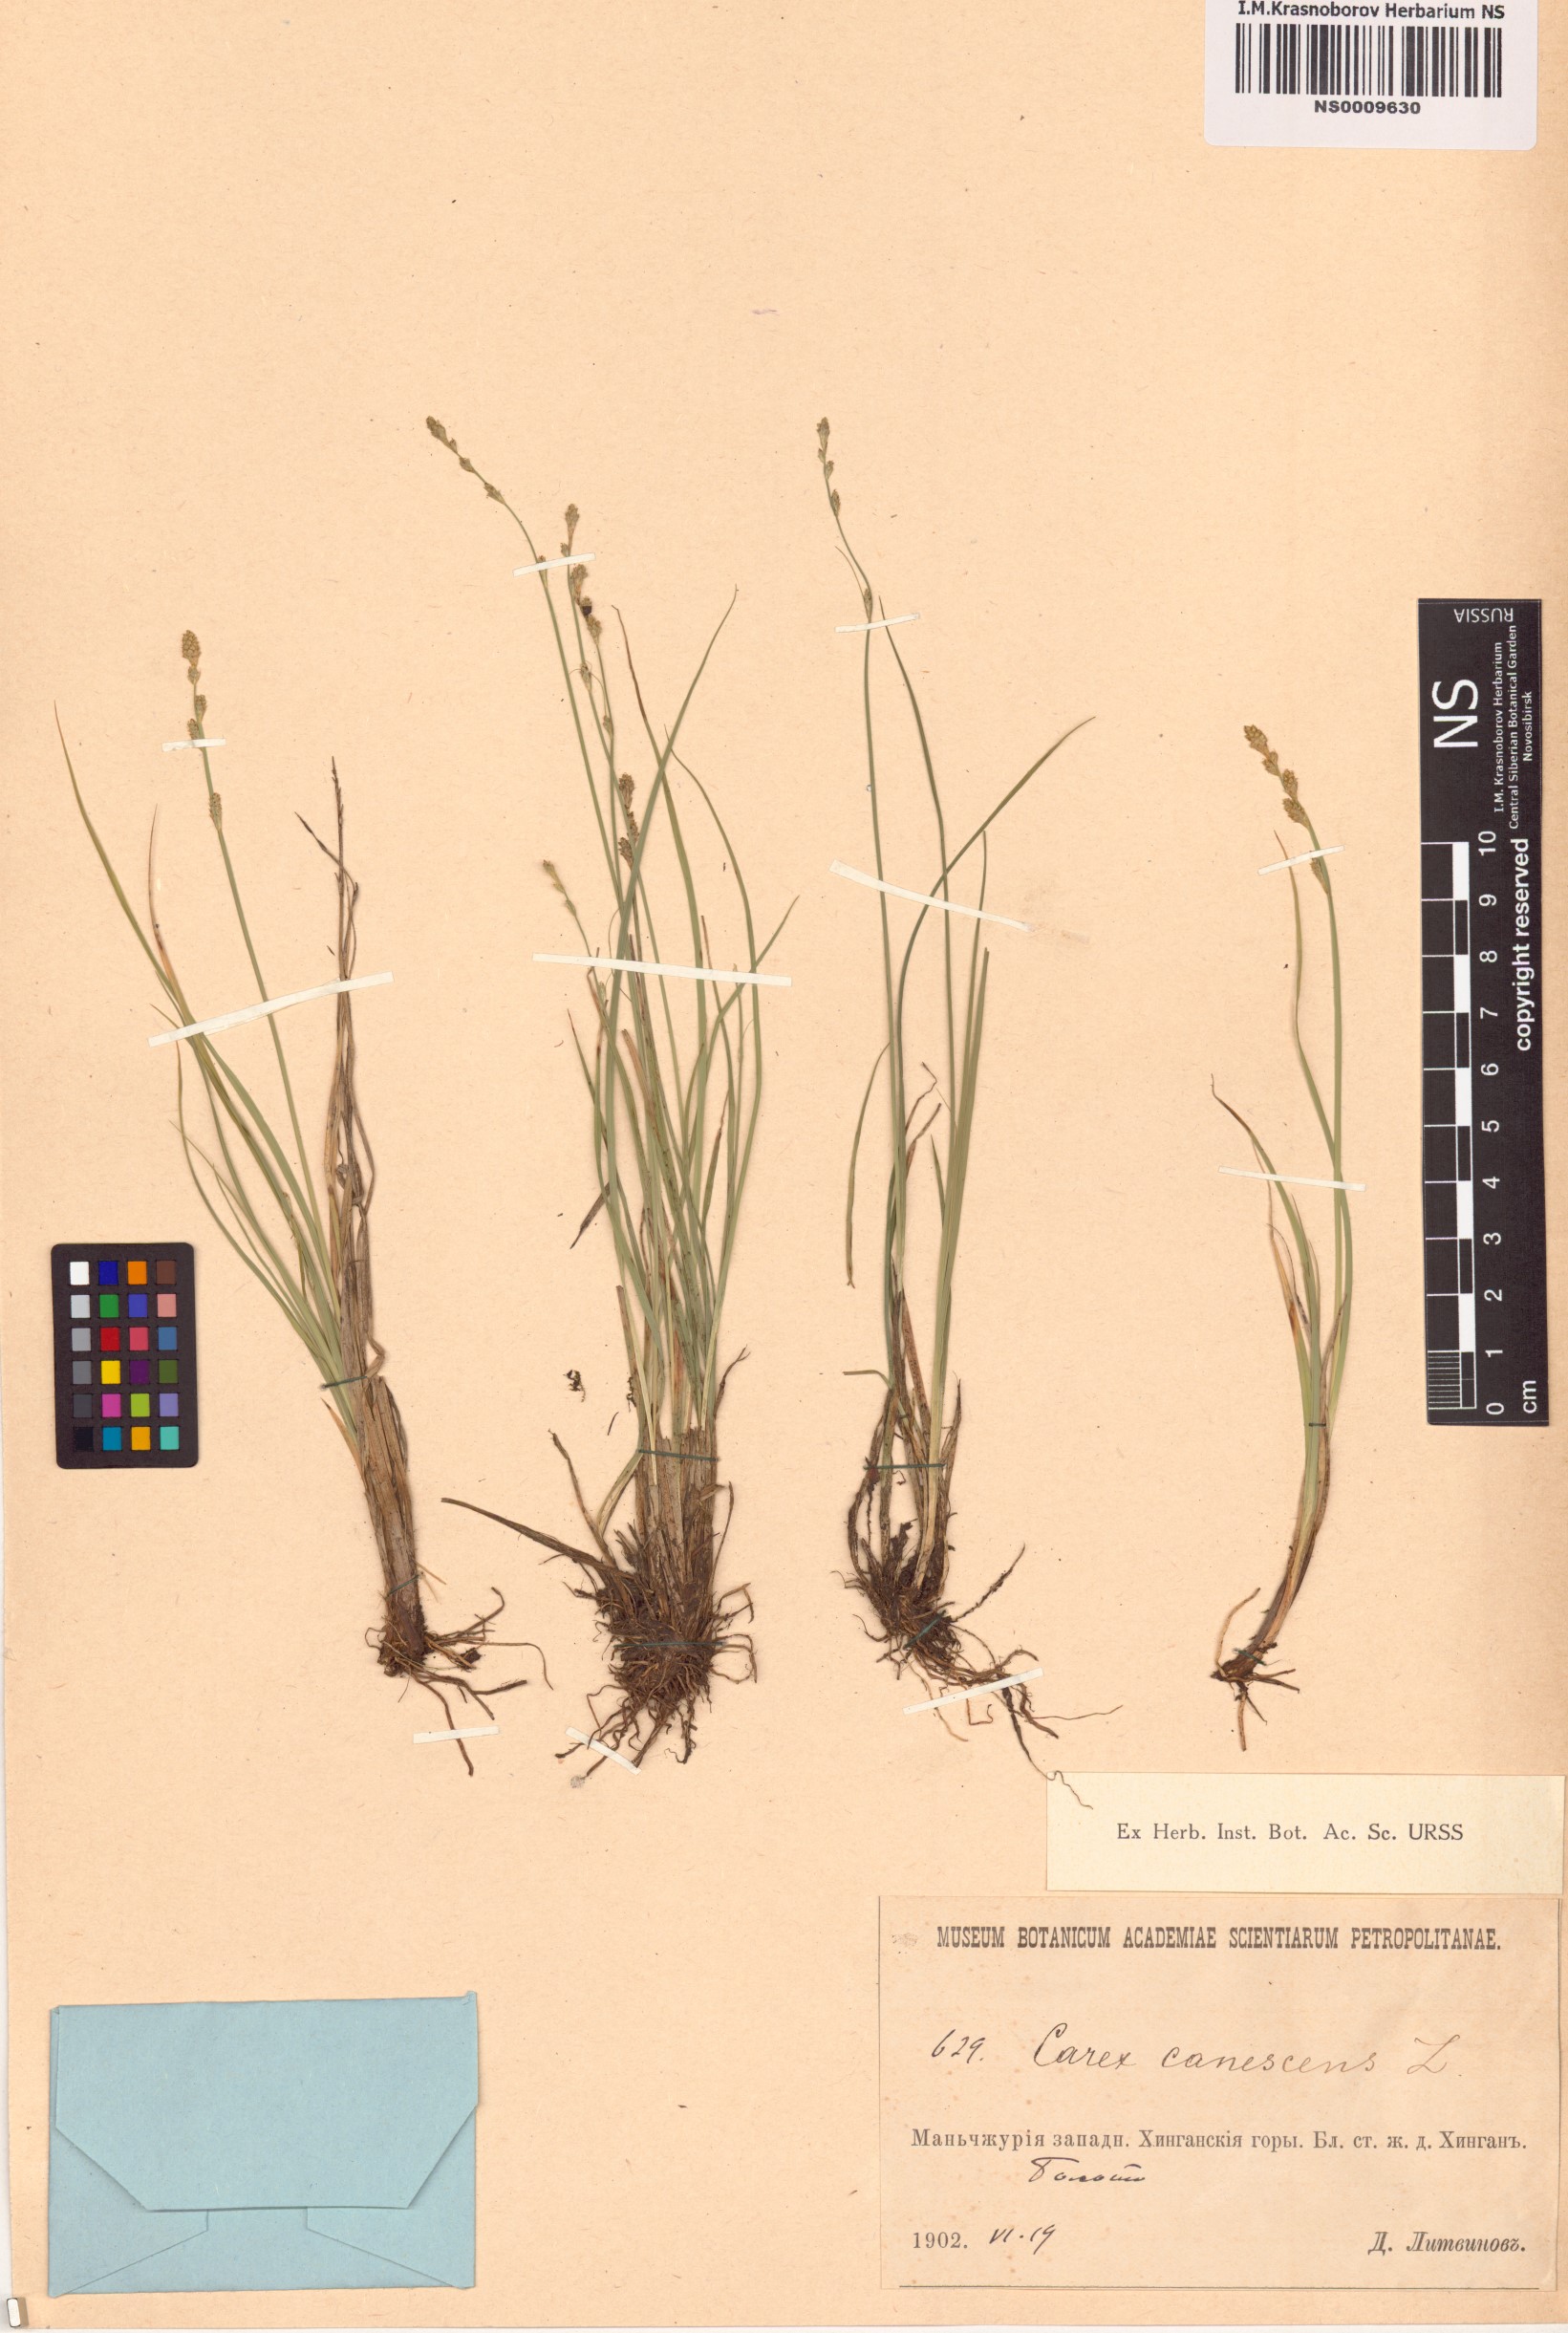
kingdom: Plantae
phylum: Tracheophyta
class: Liliopsida
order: Poales
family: Cyperaceae
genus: Carex
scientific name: Carex canescens
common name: White sedge
